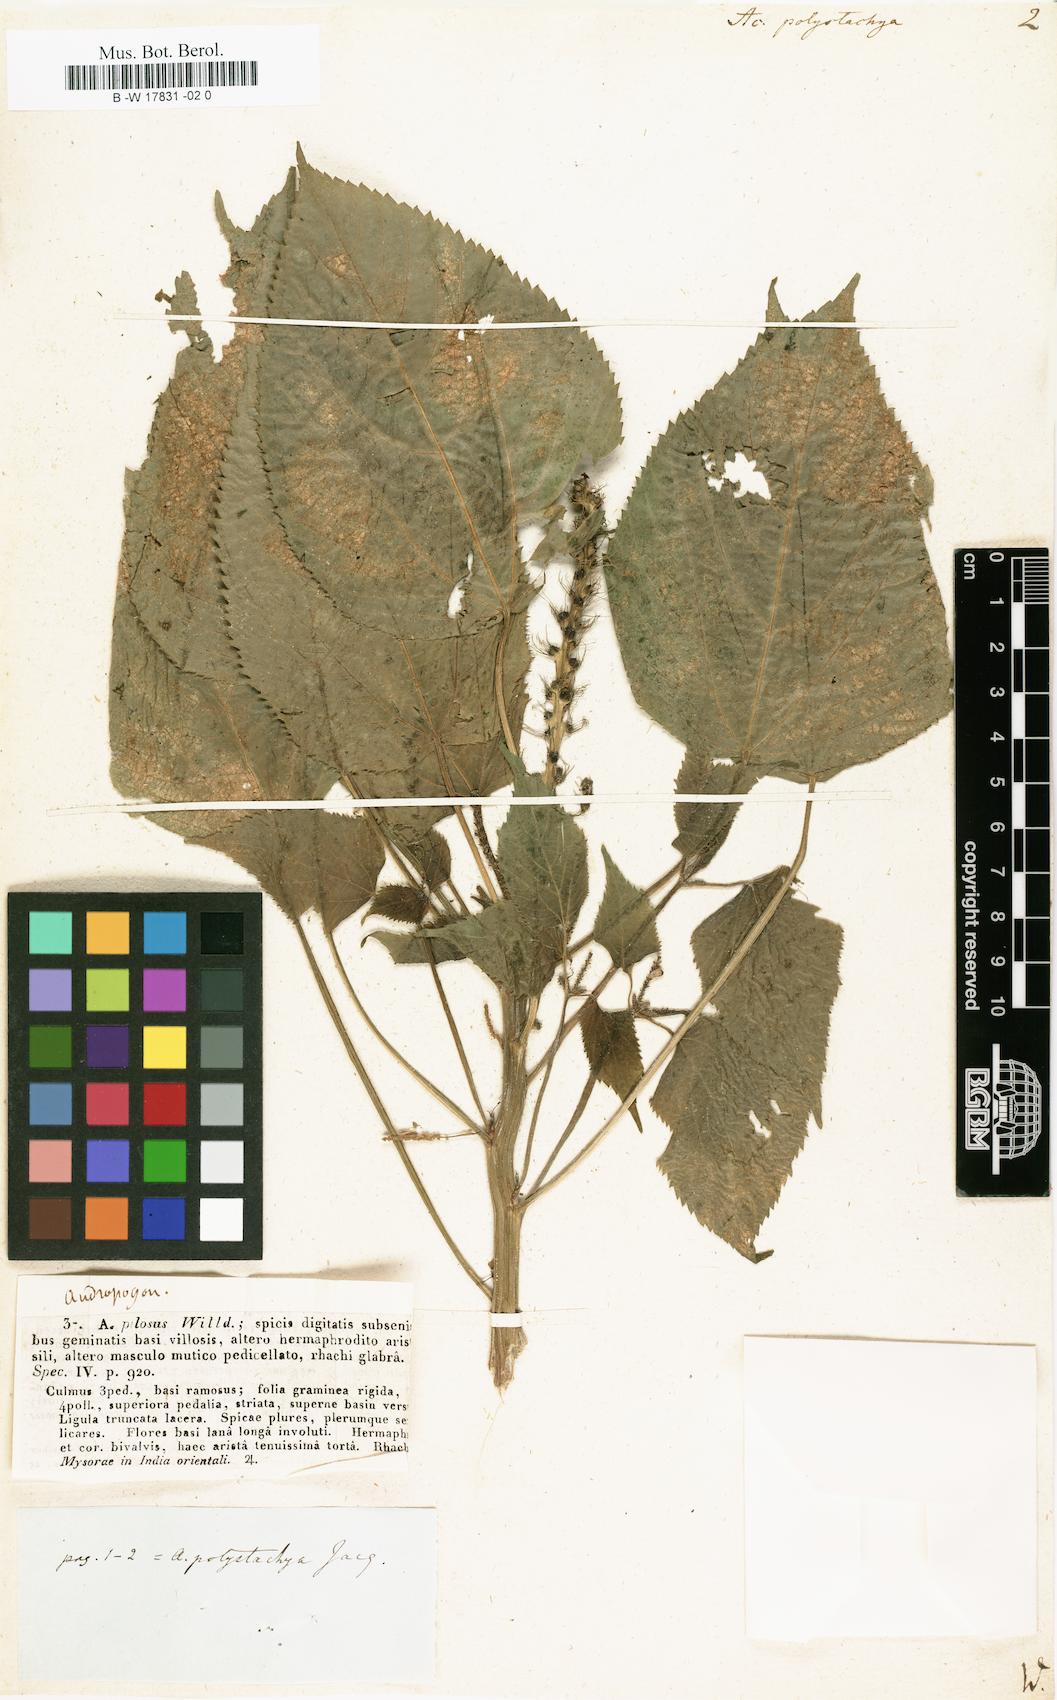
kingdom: Plantae
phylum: Tracheophyta
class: Magnoliopsida
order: Malpighiales
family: Euphorbiaceae
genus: Acalypha
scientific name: Acalypha polystachya
